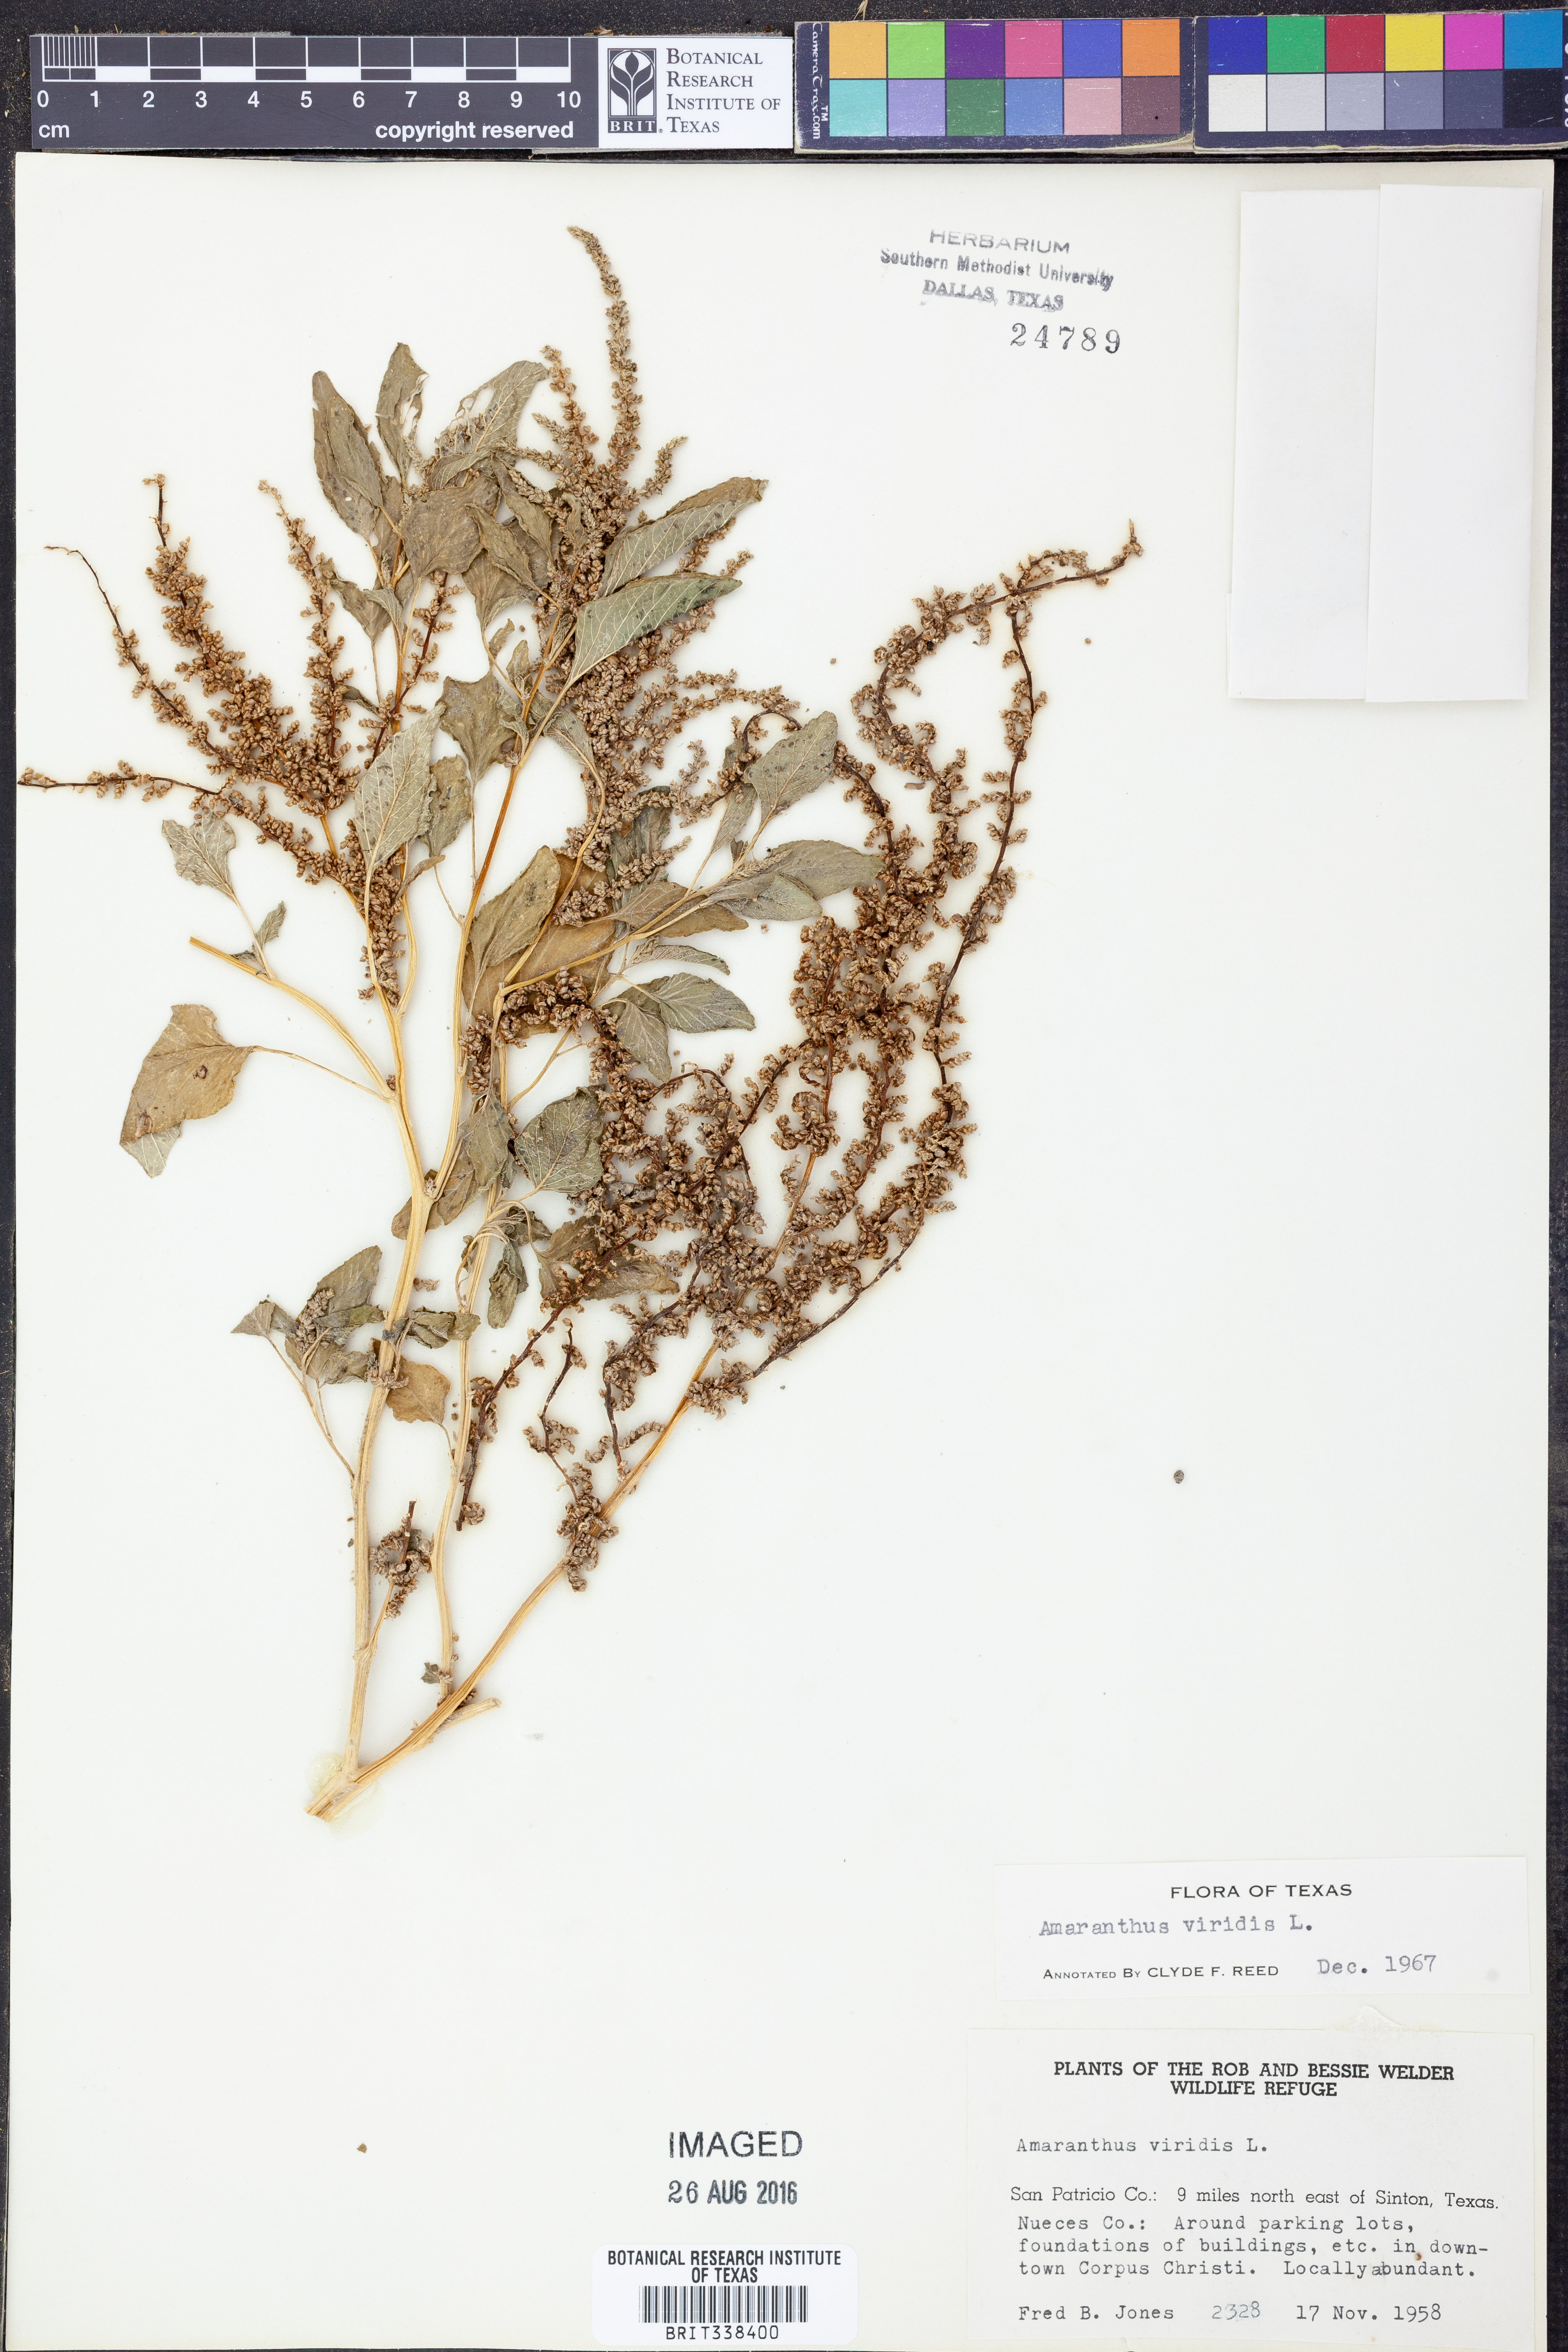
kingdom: Plantae
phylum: Tracheophyta
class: Magnoliopsida
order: Caryophyllales
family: Amaranthaceae
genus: Amaranthus
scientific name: Amaranthus viridis
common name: Slender amaranth
